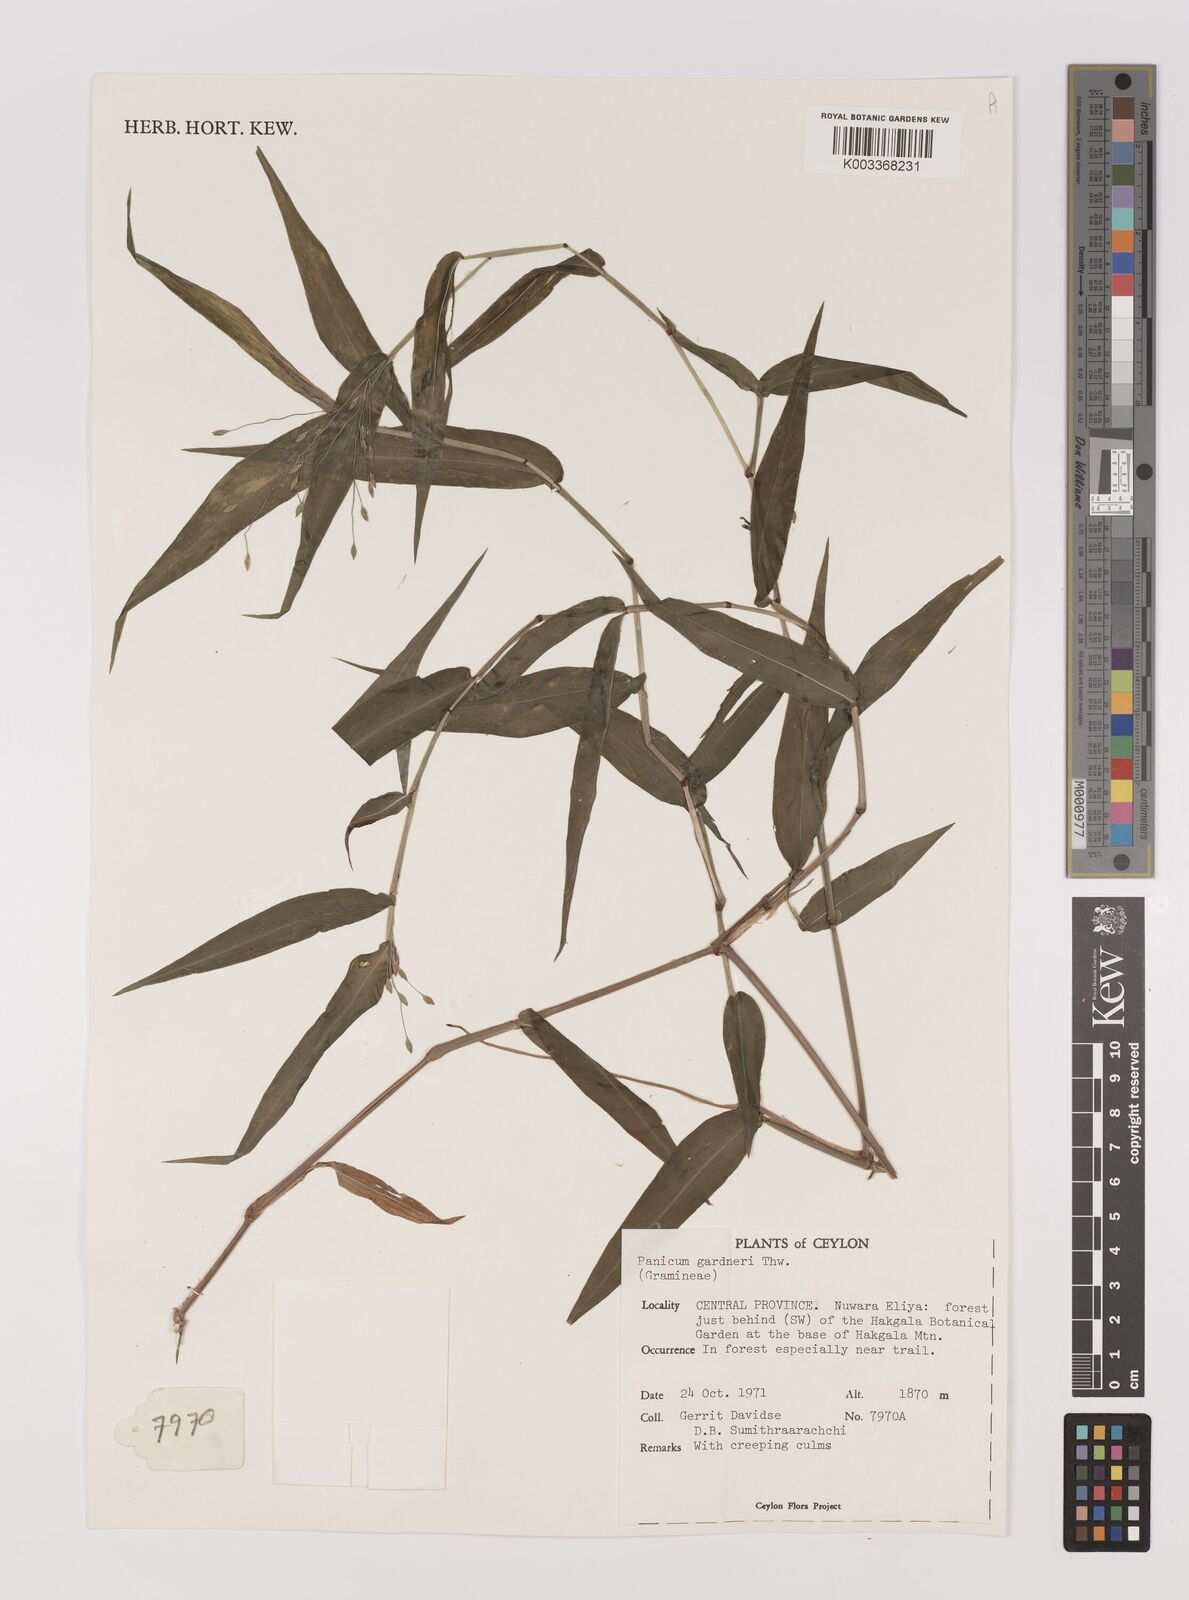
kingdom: Plantae
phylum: Tracheophyta
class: Liliopsida
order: Poales
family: Poaceae
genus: Panicum
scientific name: Panicum gardneri
